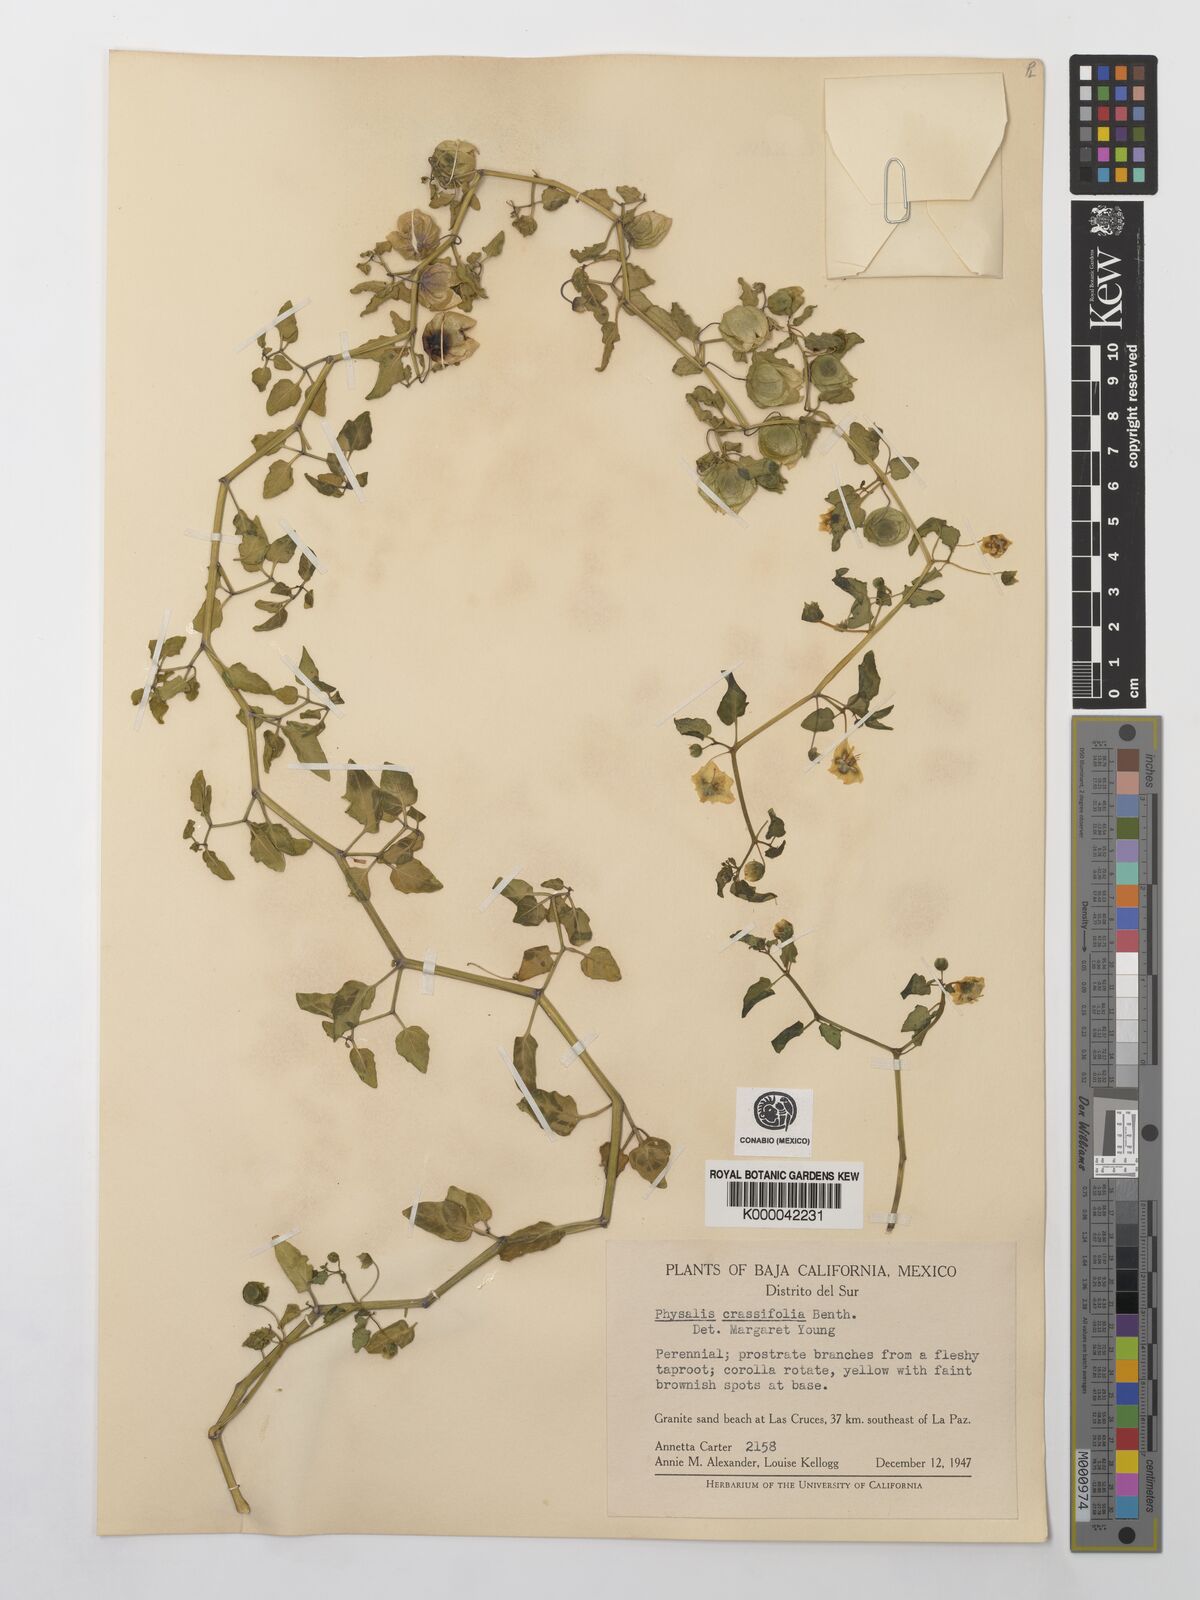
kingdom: Plantae
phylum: Tracheophyta
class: Magnoliopsida
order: Solanales
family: Solanaceae
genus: Physalis
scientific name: Physalis crassifolia
